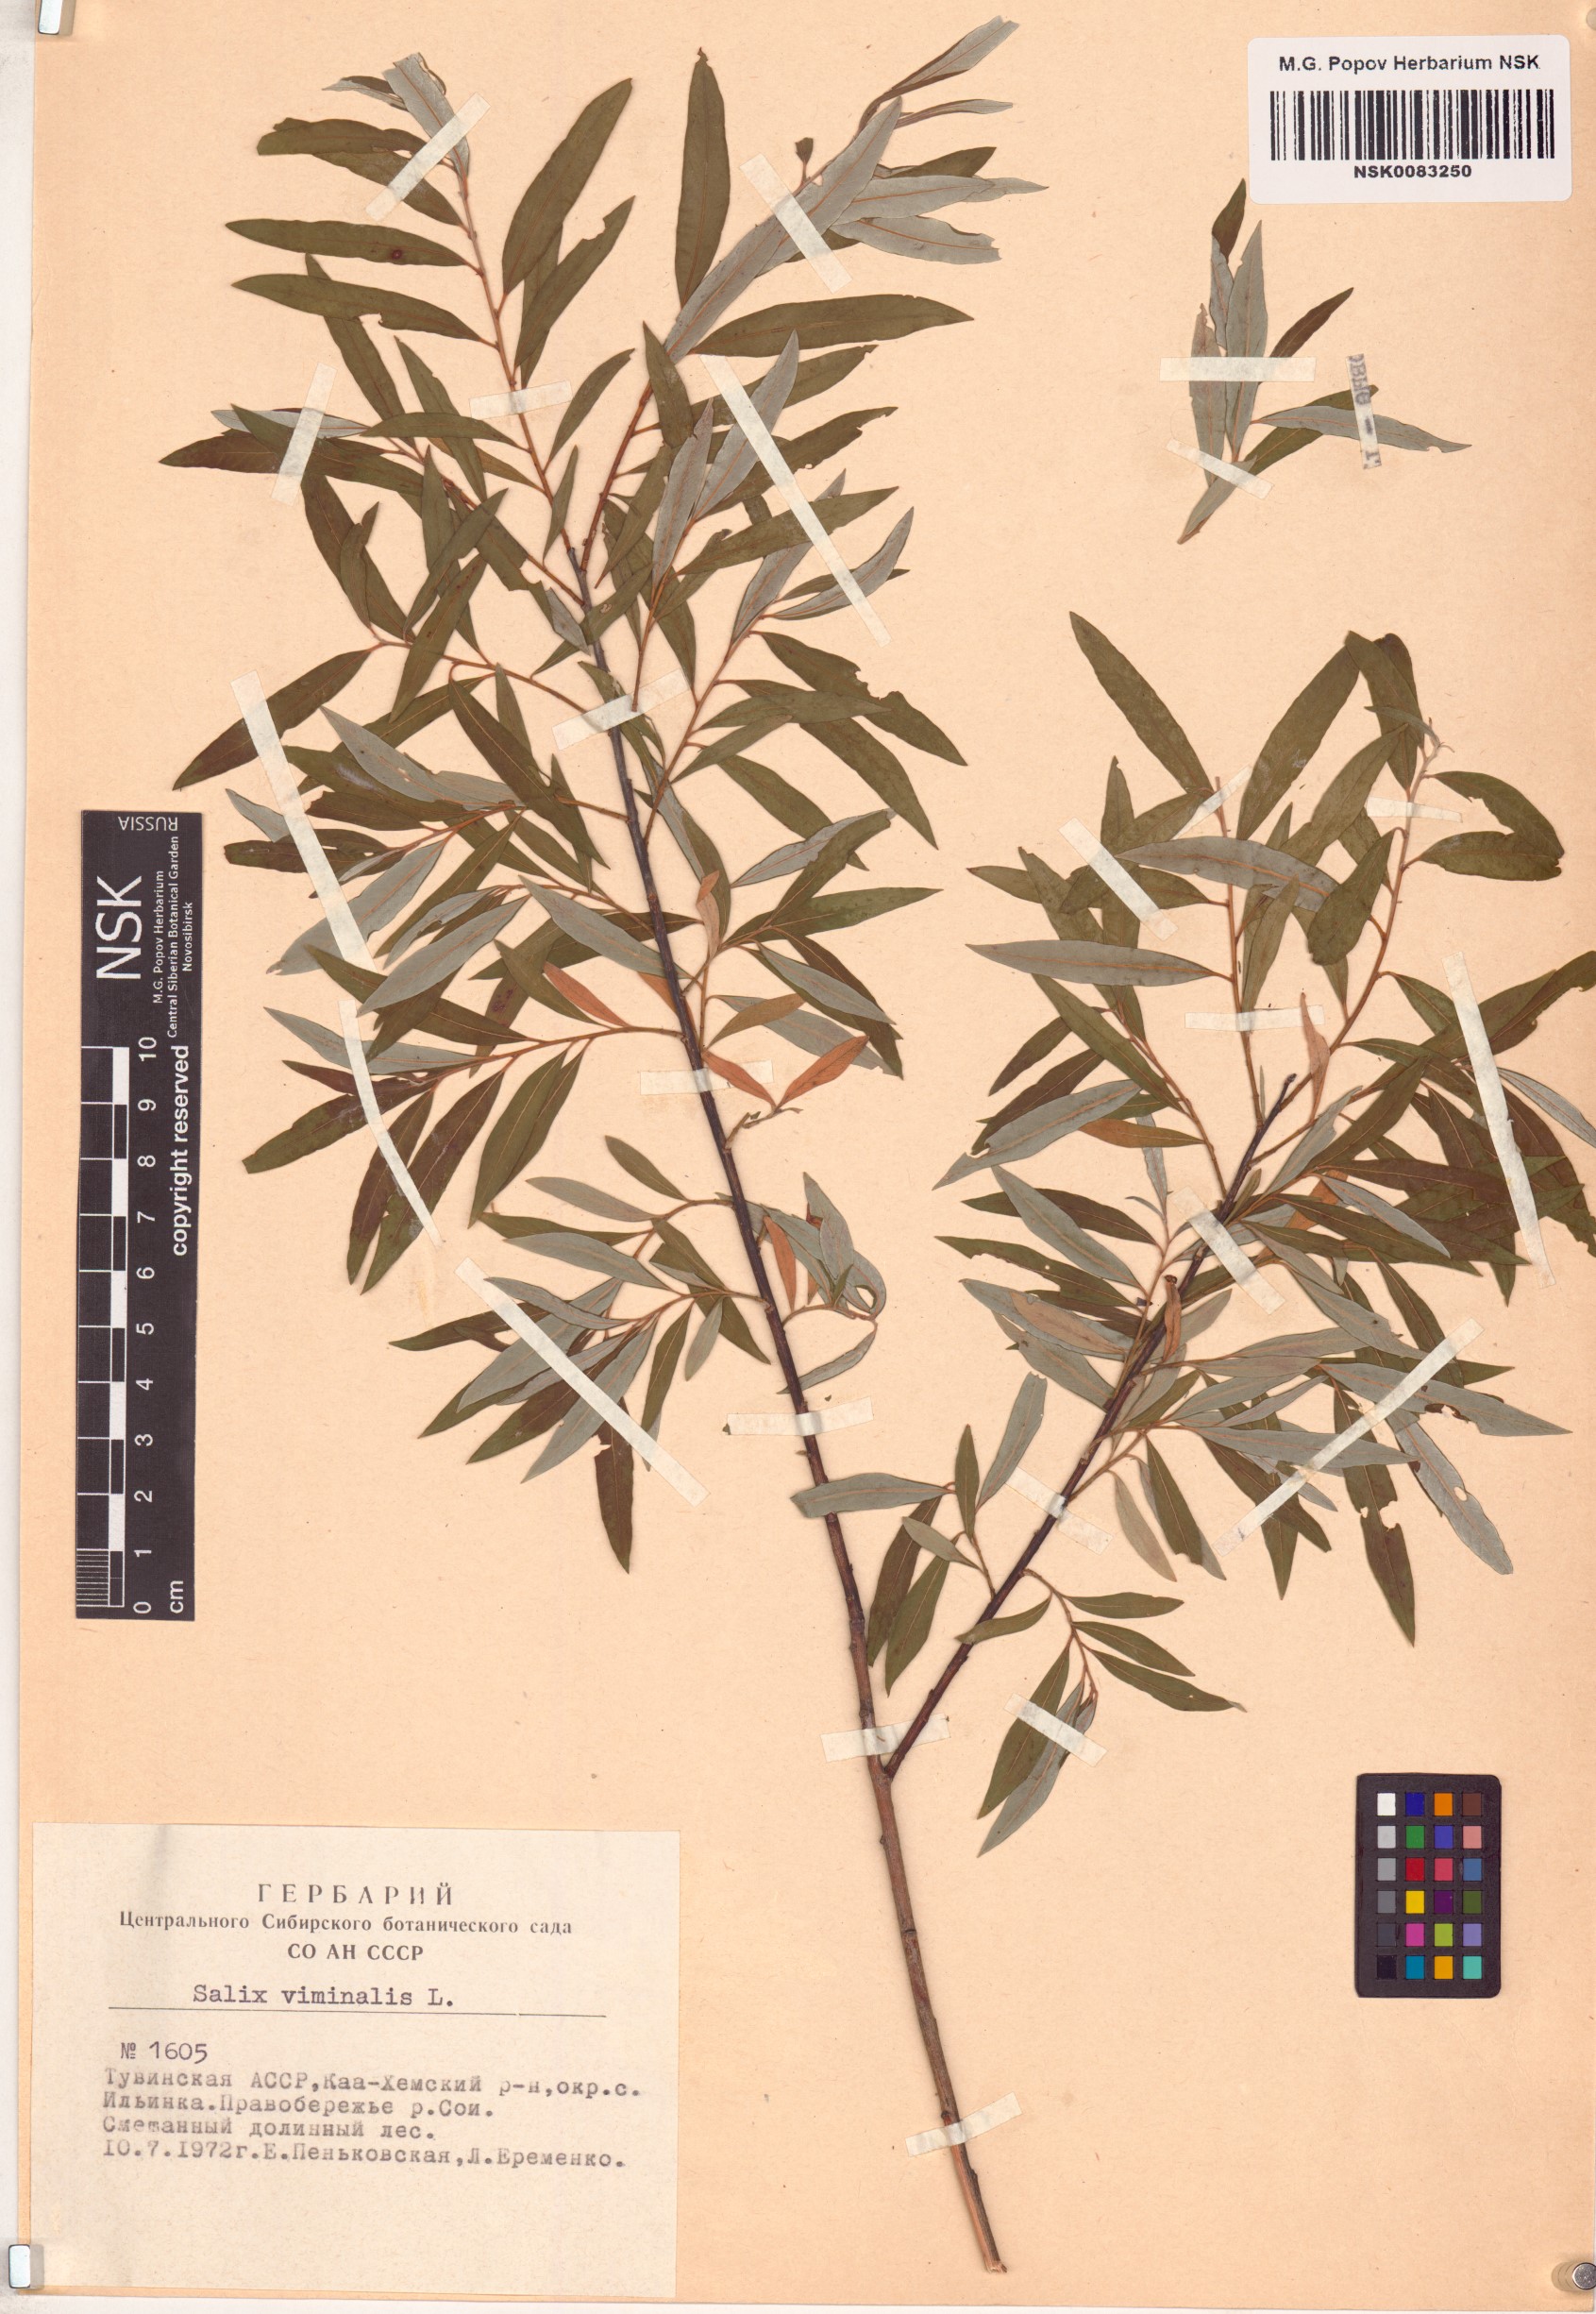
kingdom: Plantae
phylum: Tracheophyta
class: Magnoliopsida
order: Malpighiales
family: Salicaceae
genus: Salix
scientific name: Salix viminalis
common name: Osier
